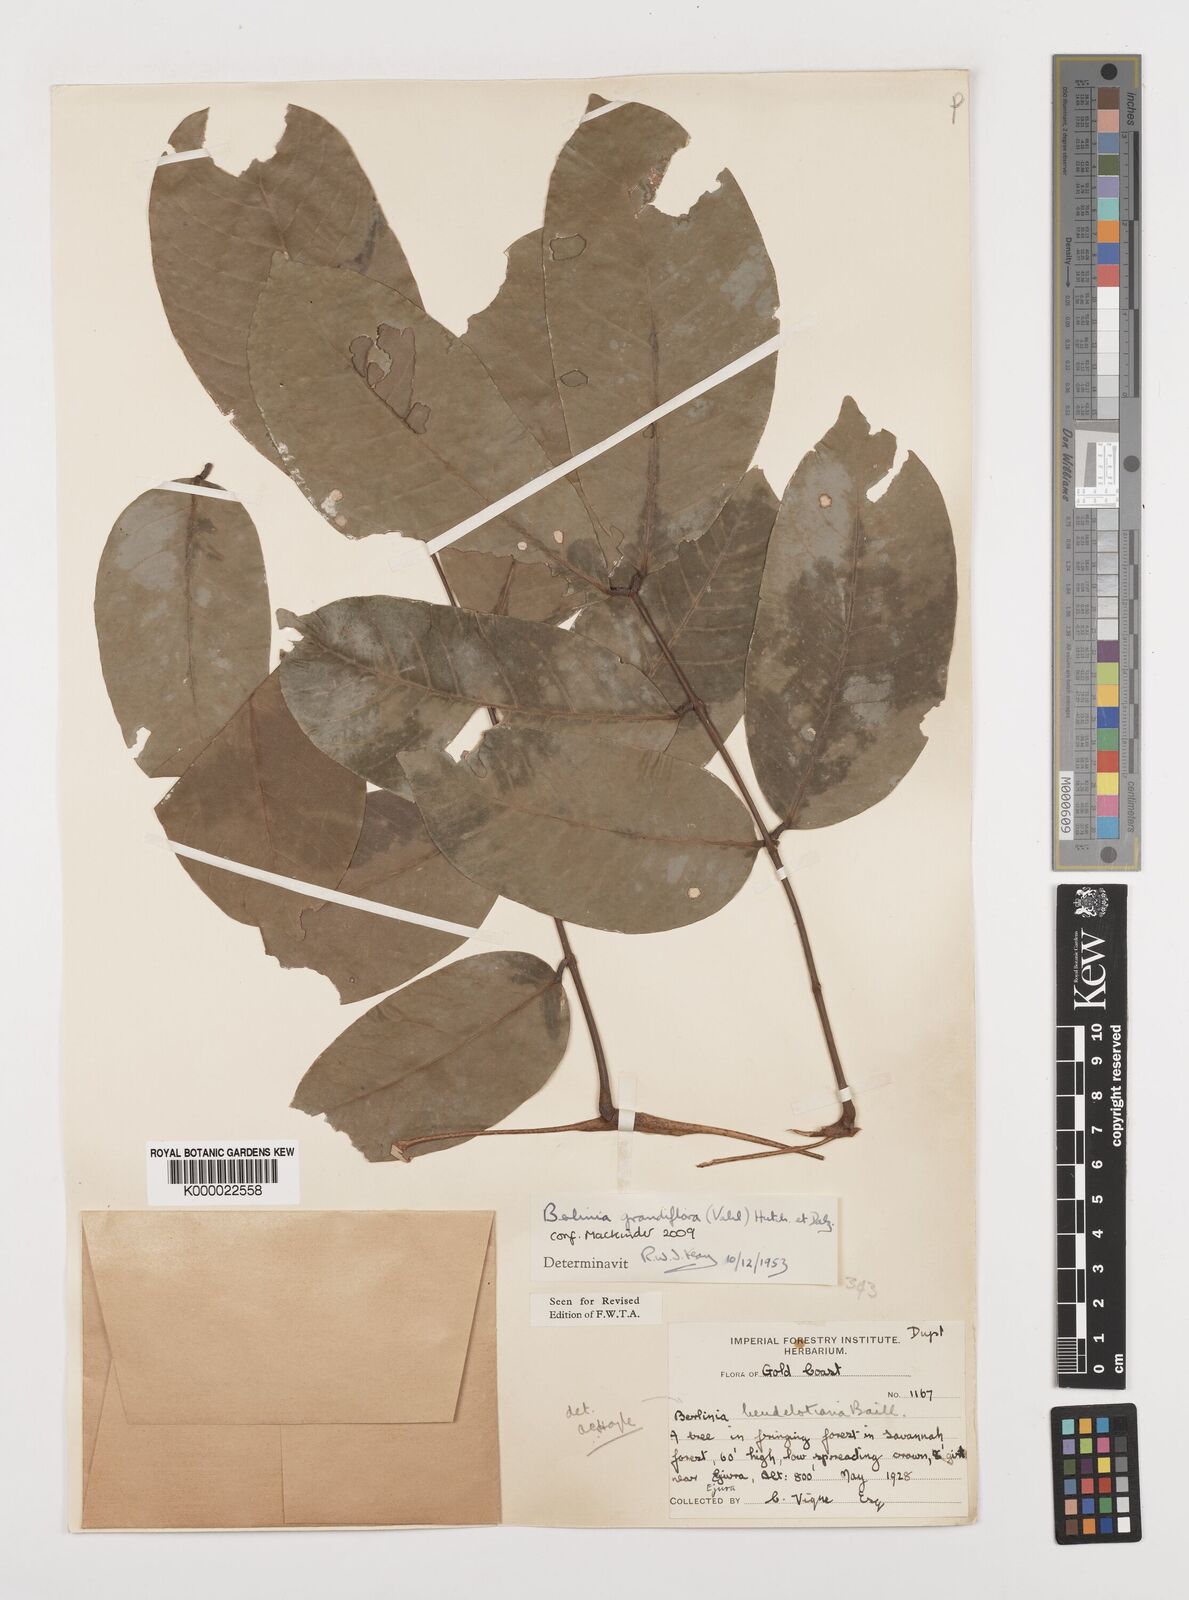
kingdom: Plantae
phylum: Tracheophyta
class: Magnoliopsida
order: Fabales
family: Fabaceae
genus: Berlinia
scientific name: Berlinia grandiflora
